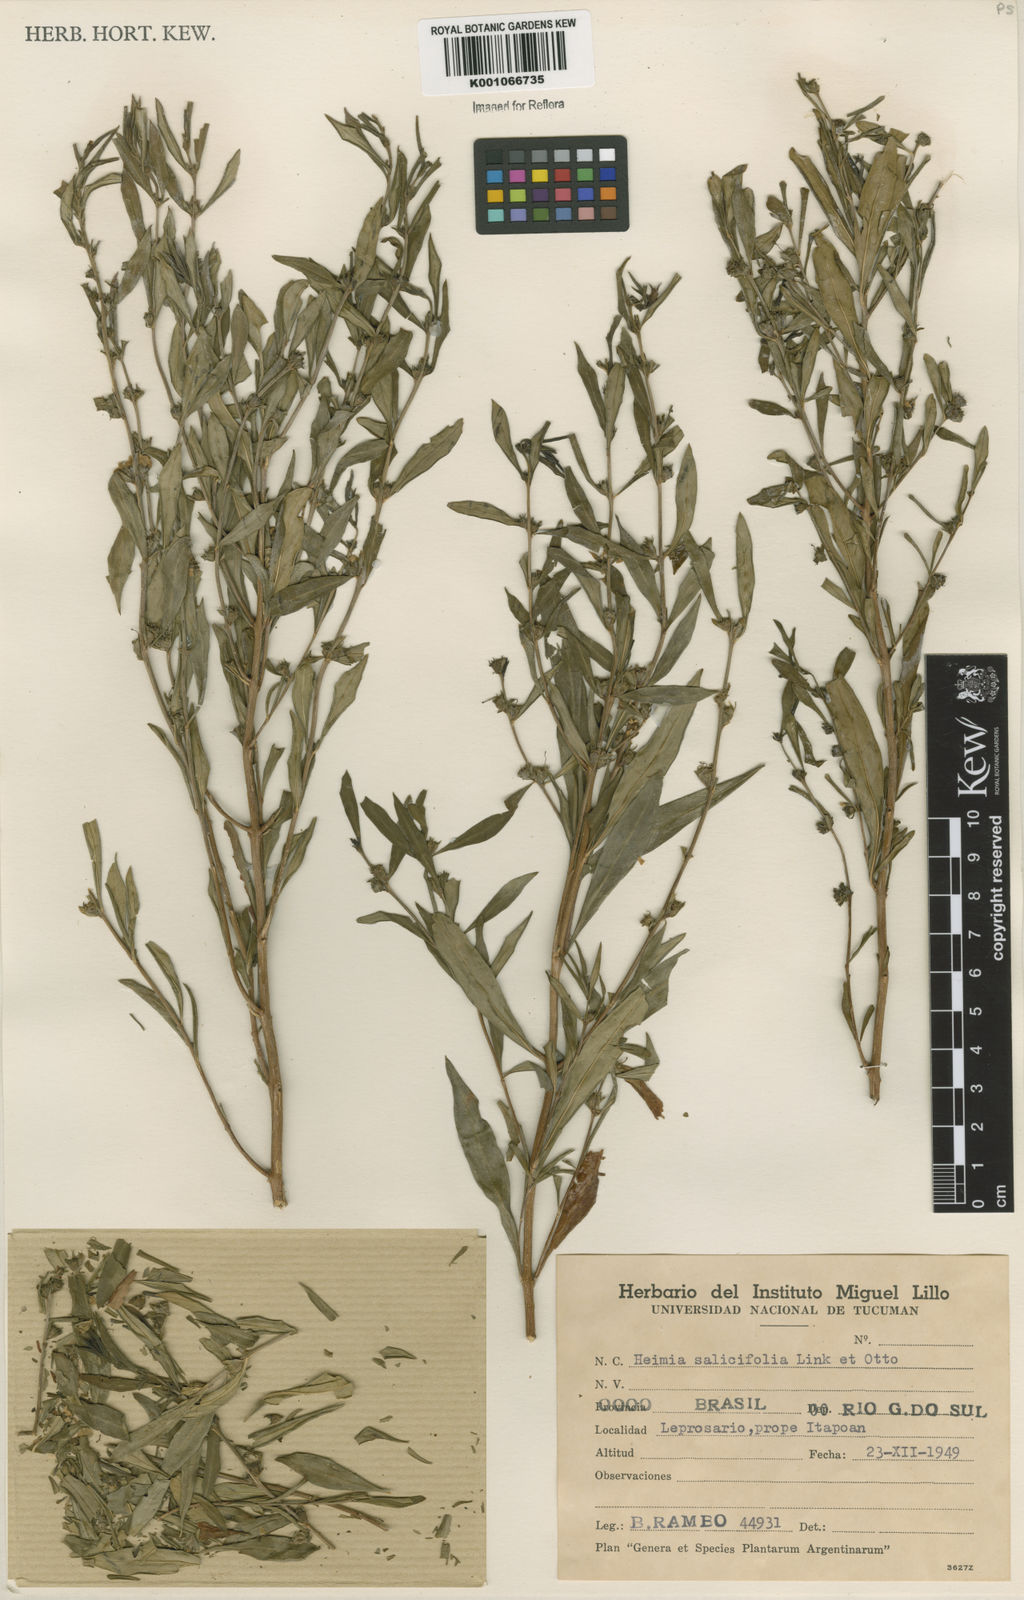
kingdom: Plantae
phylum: Tracheophyta
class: Magnoliopsida
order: Myrtales
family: Lythraceae
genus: Heimia
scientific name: Heimia salicifolia
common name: Willow-leaf heimia
